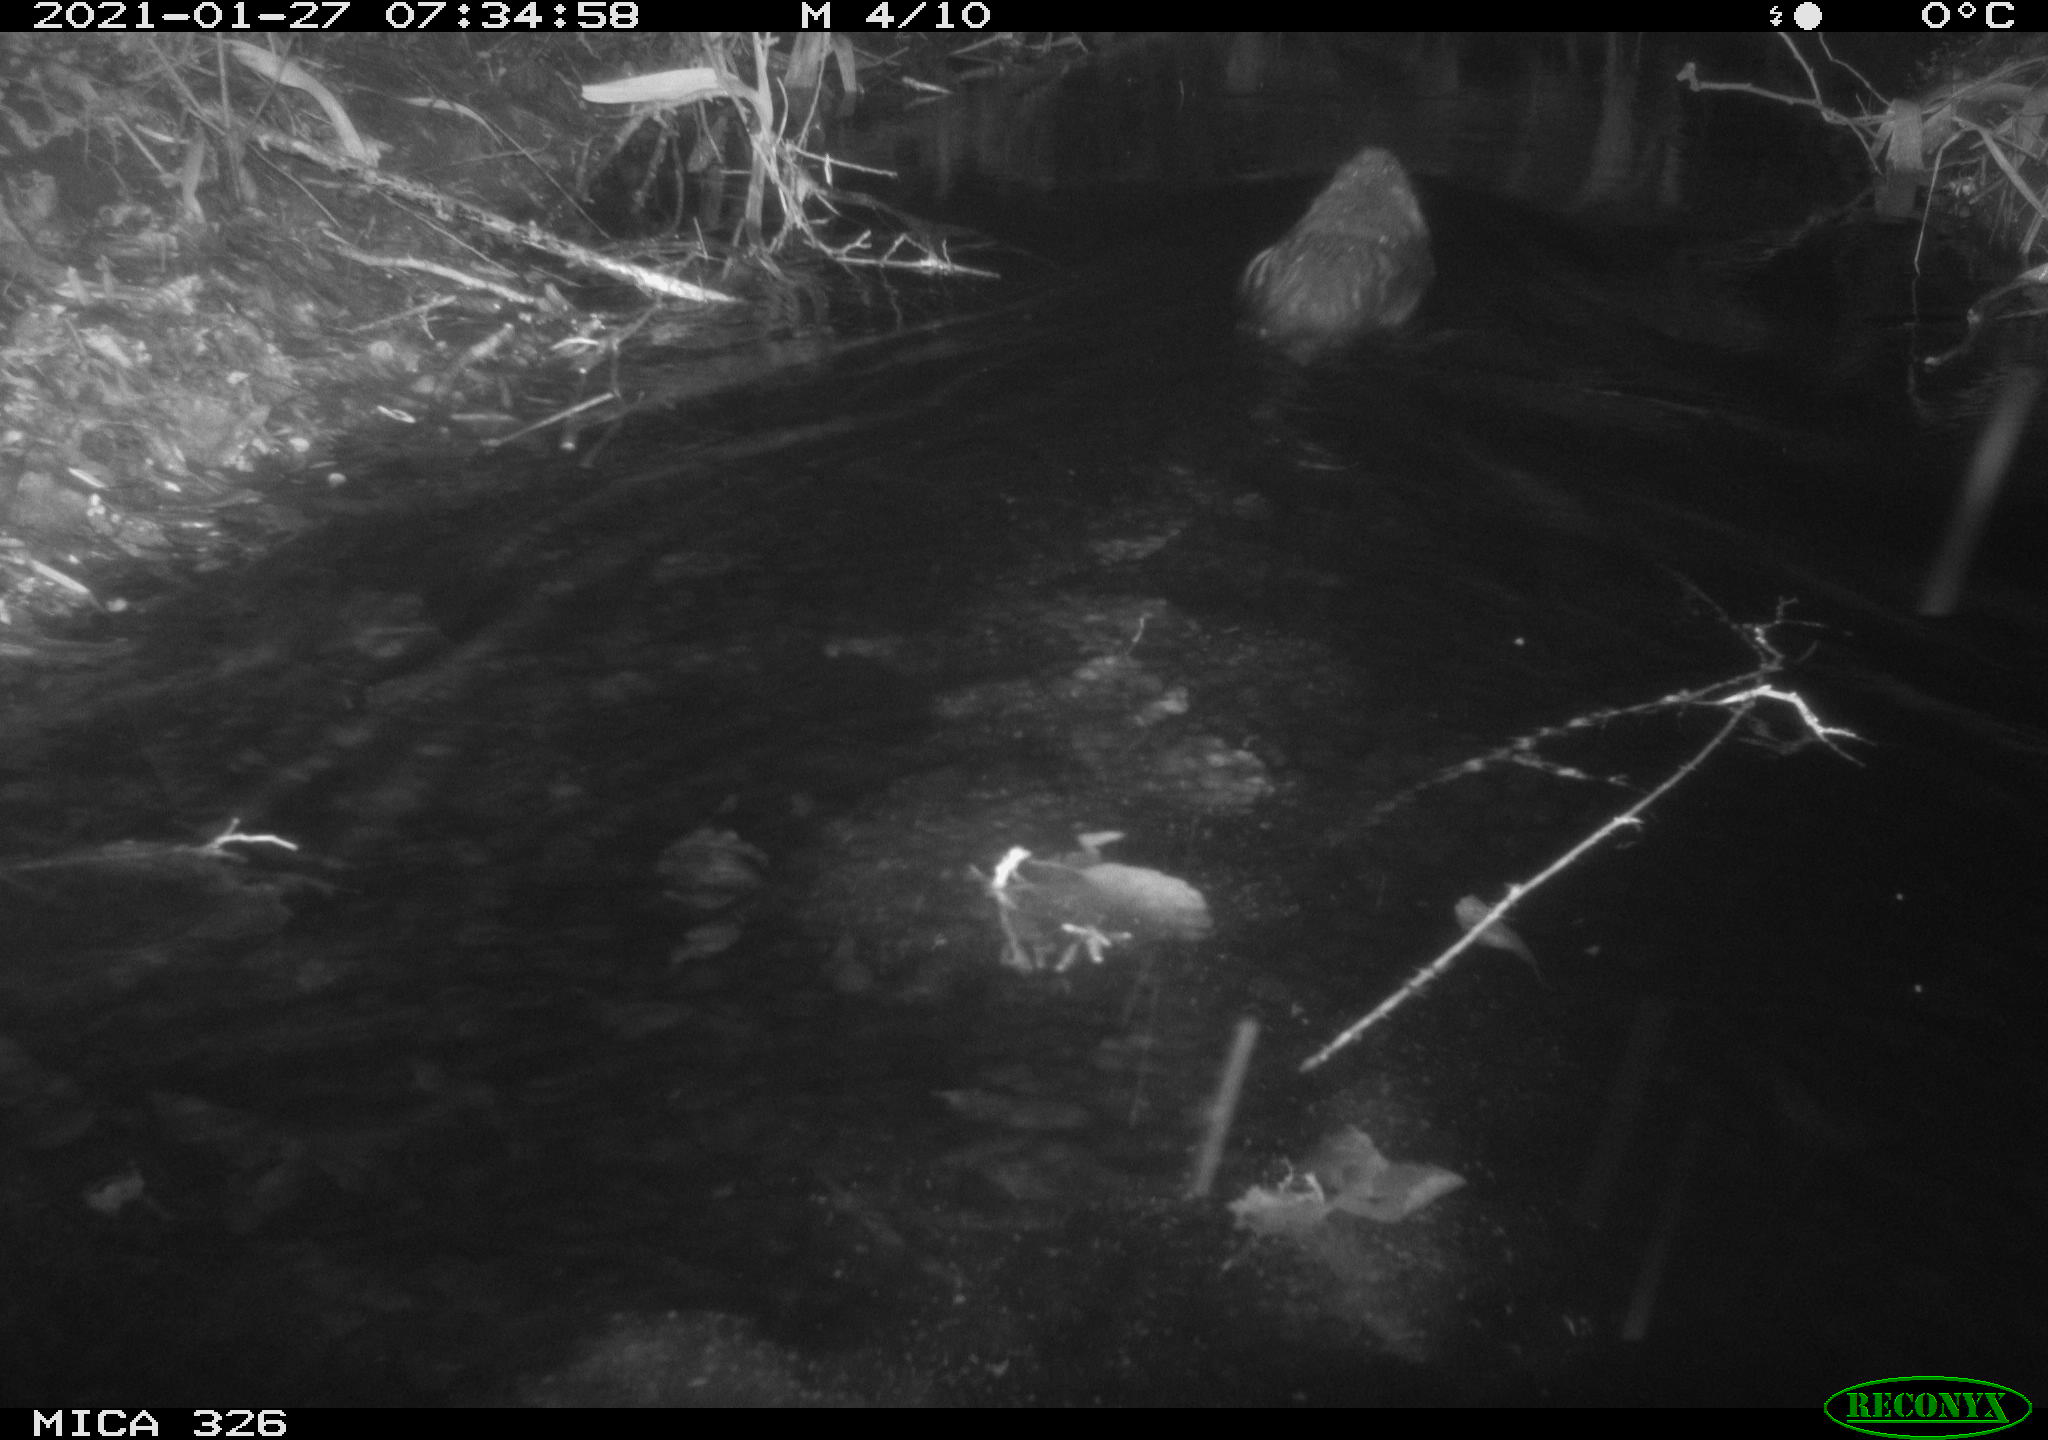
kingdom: Animalia
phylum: Chordata
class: Mammalia
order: Rodentia
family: Myocastoridae
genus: Myocastor
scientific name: Myocastor coypus
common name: Coypu
